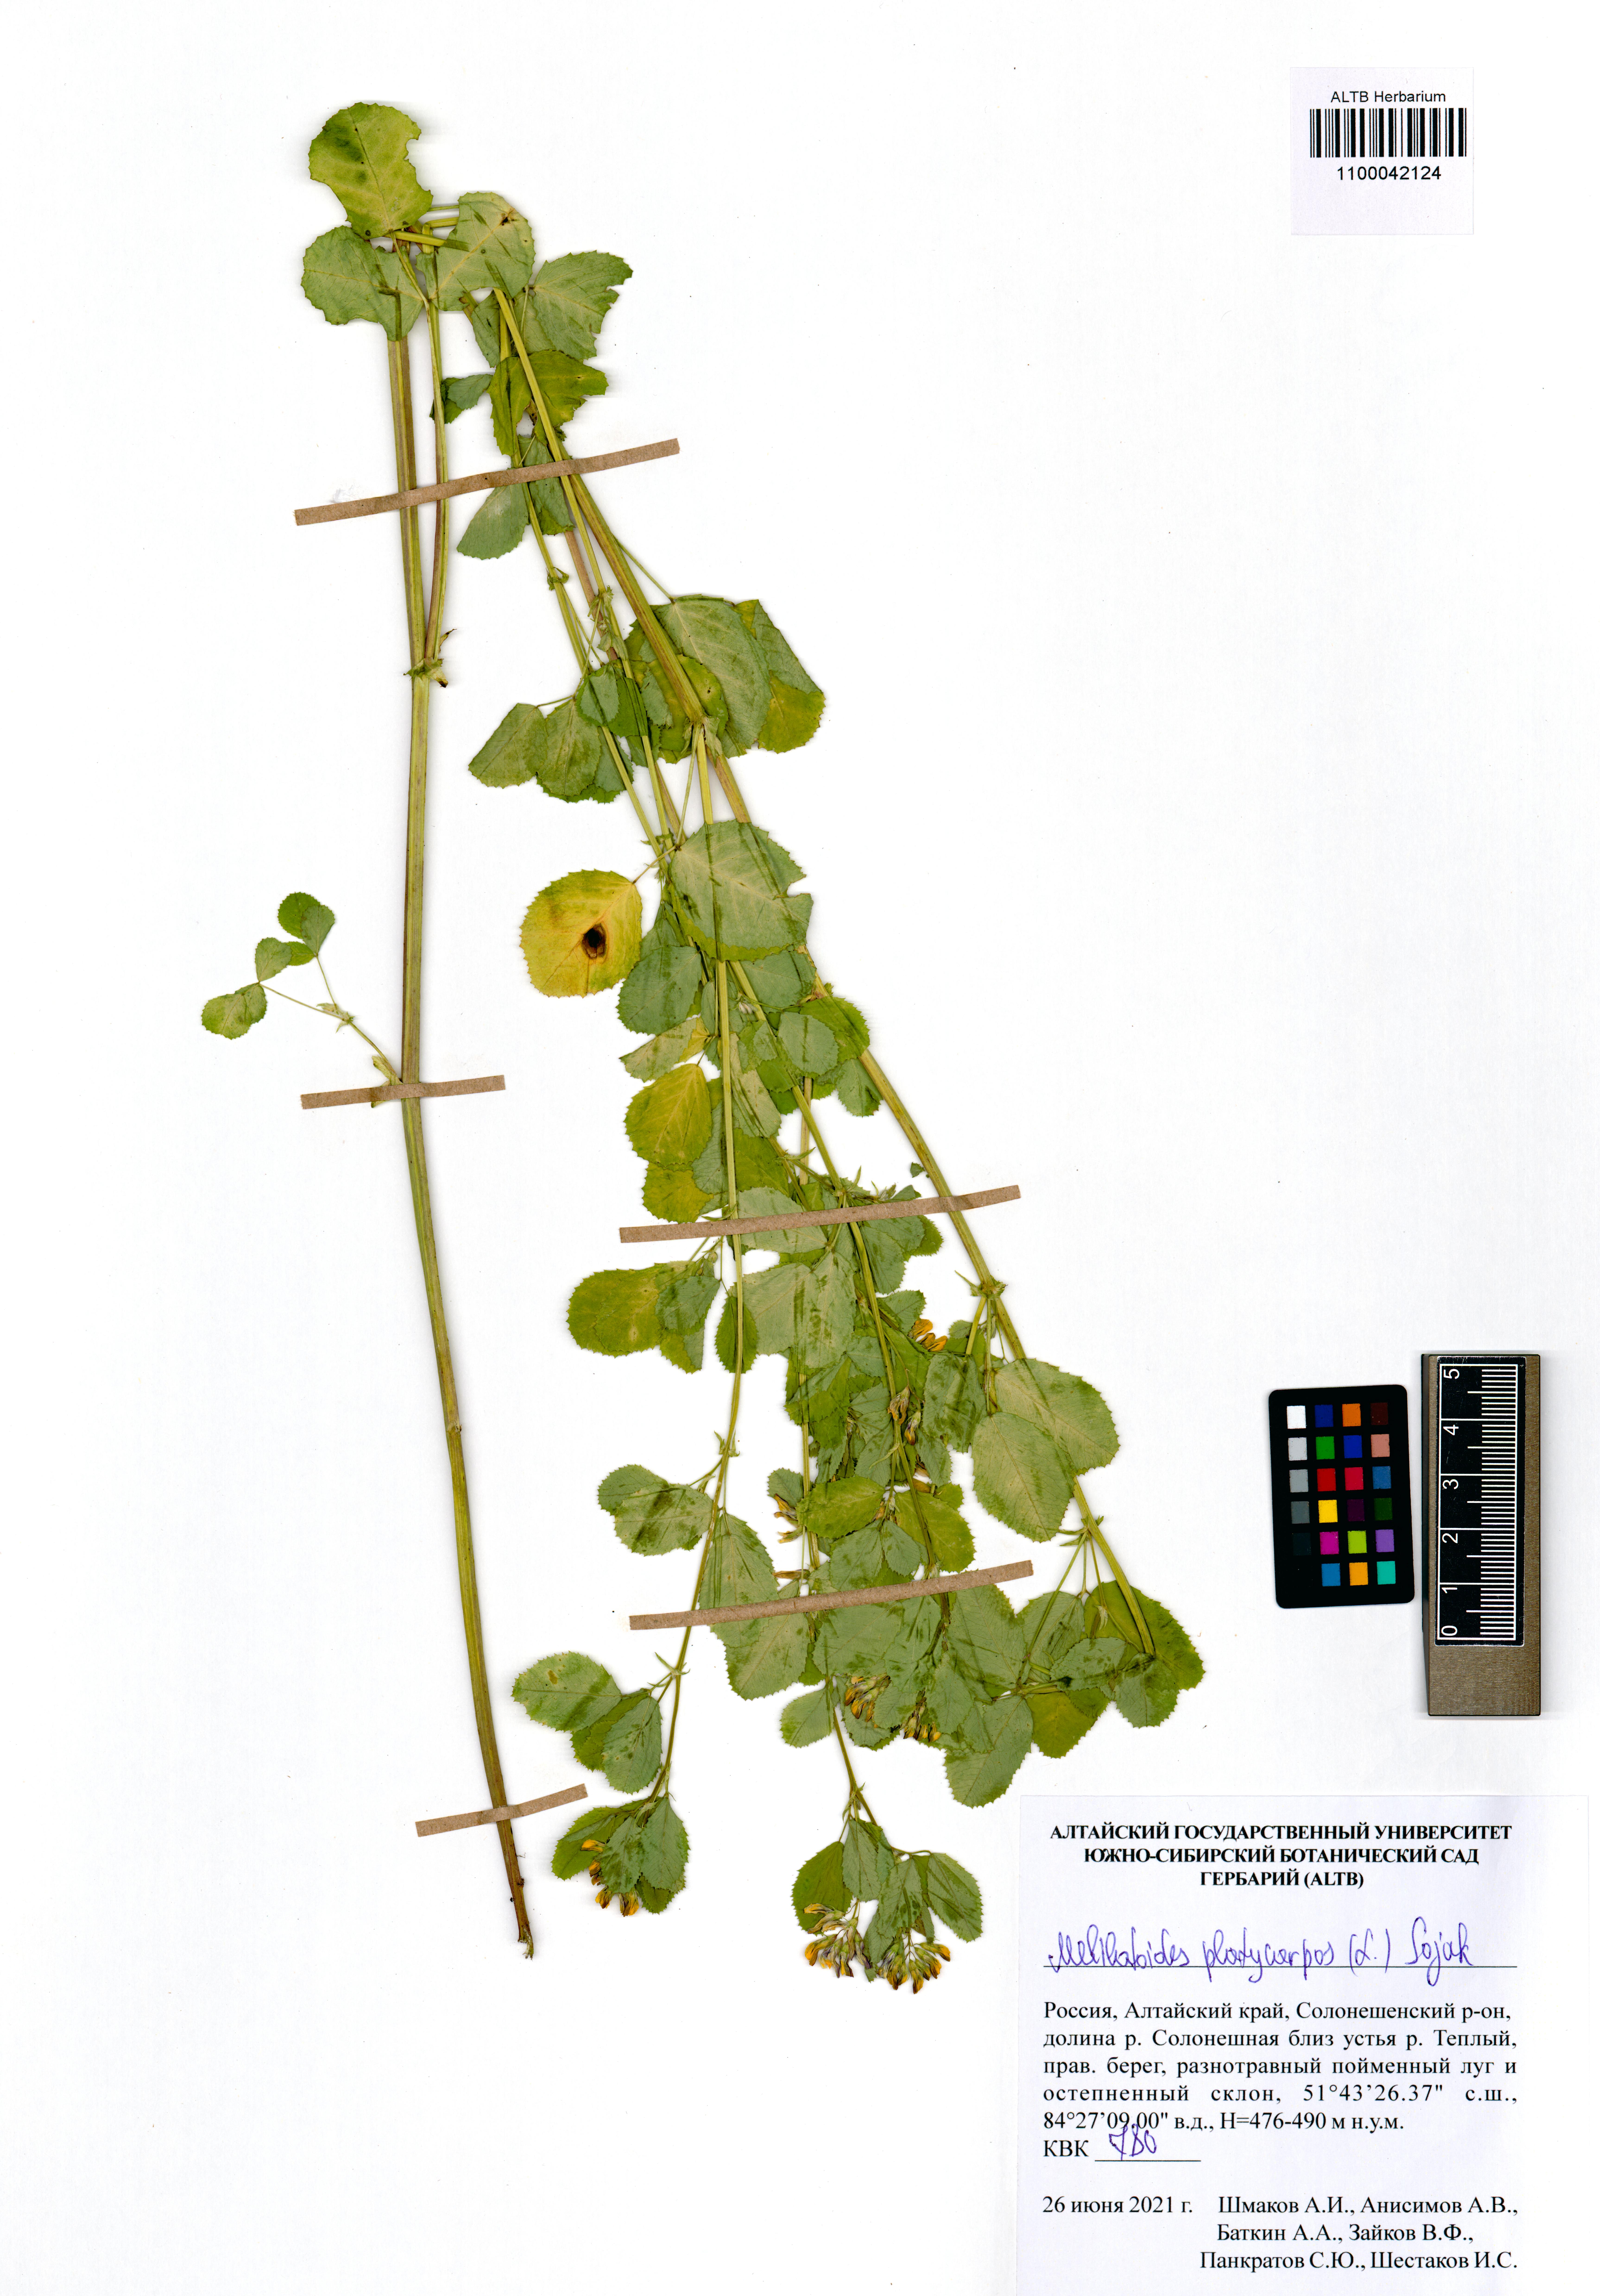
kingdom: Plantae
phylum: Tracheophyta
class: Magnoliopsida
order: Fabales
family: Fabaceae
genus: Medicago
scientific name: Medicago platycarpos
